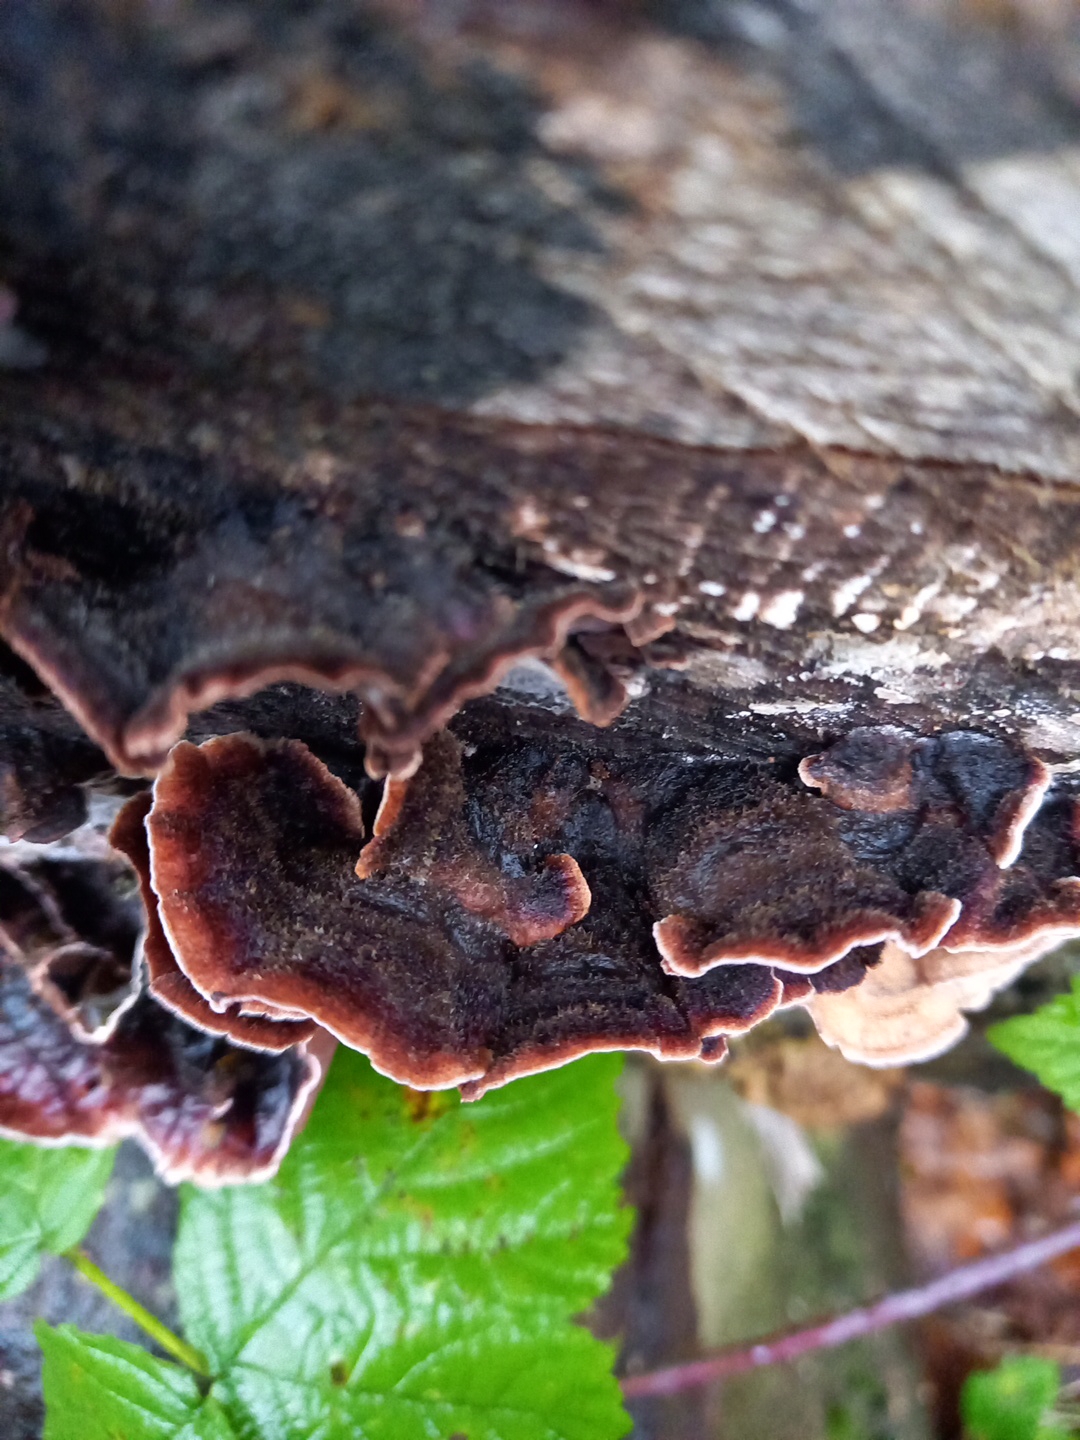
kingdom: Fungi
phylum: Basidiomycota
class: Agaricomycetes
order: Agaricales
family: Cyphellaceae
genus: Chondrostereum
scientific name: Chondrostereum purpureum
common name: purpurlædersvamp
